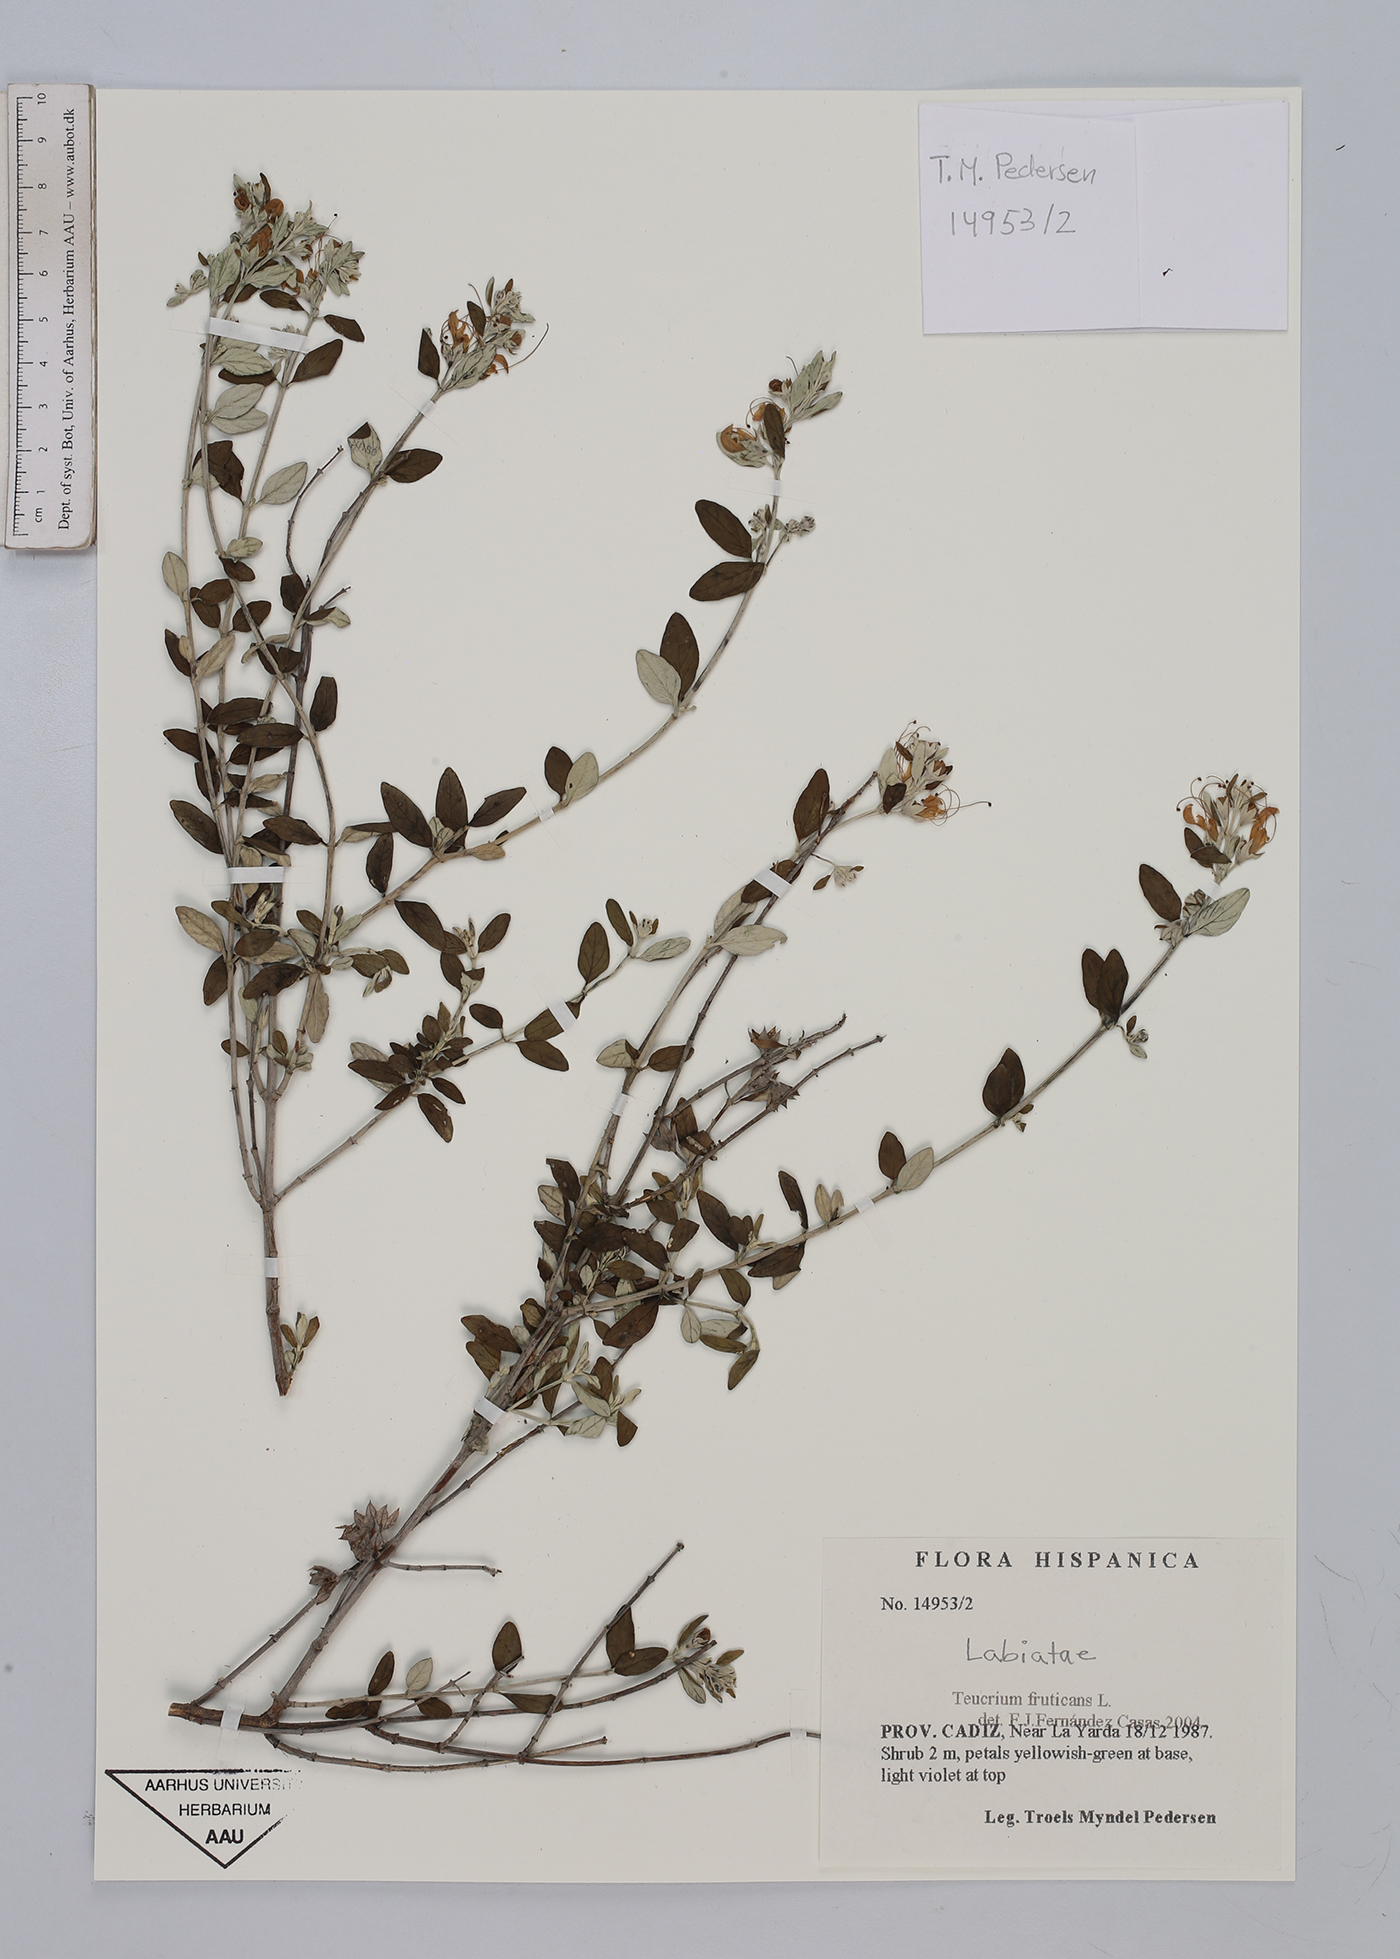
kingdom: Plantae
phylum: Tracheophyta
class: Magnoliopsida
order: Lamiales
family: Lamiaceae
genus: Teucrium
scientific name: Teucrium fruticans
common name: Shrubby germander
